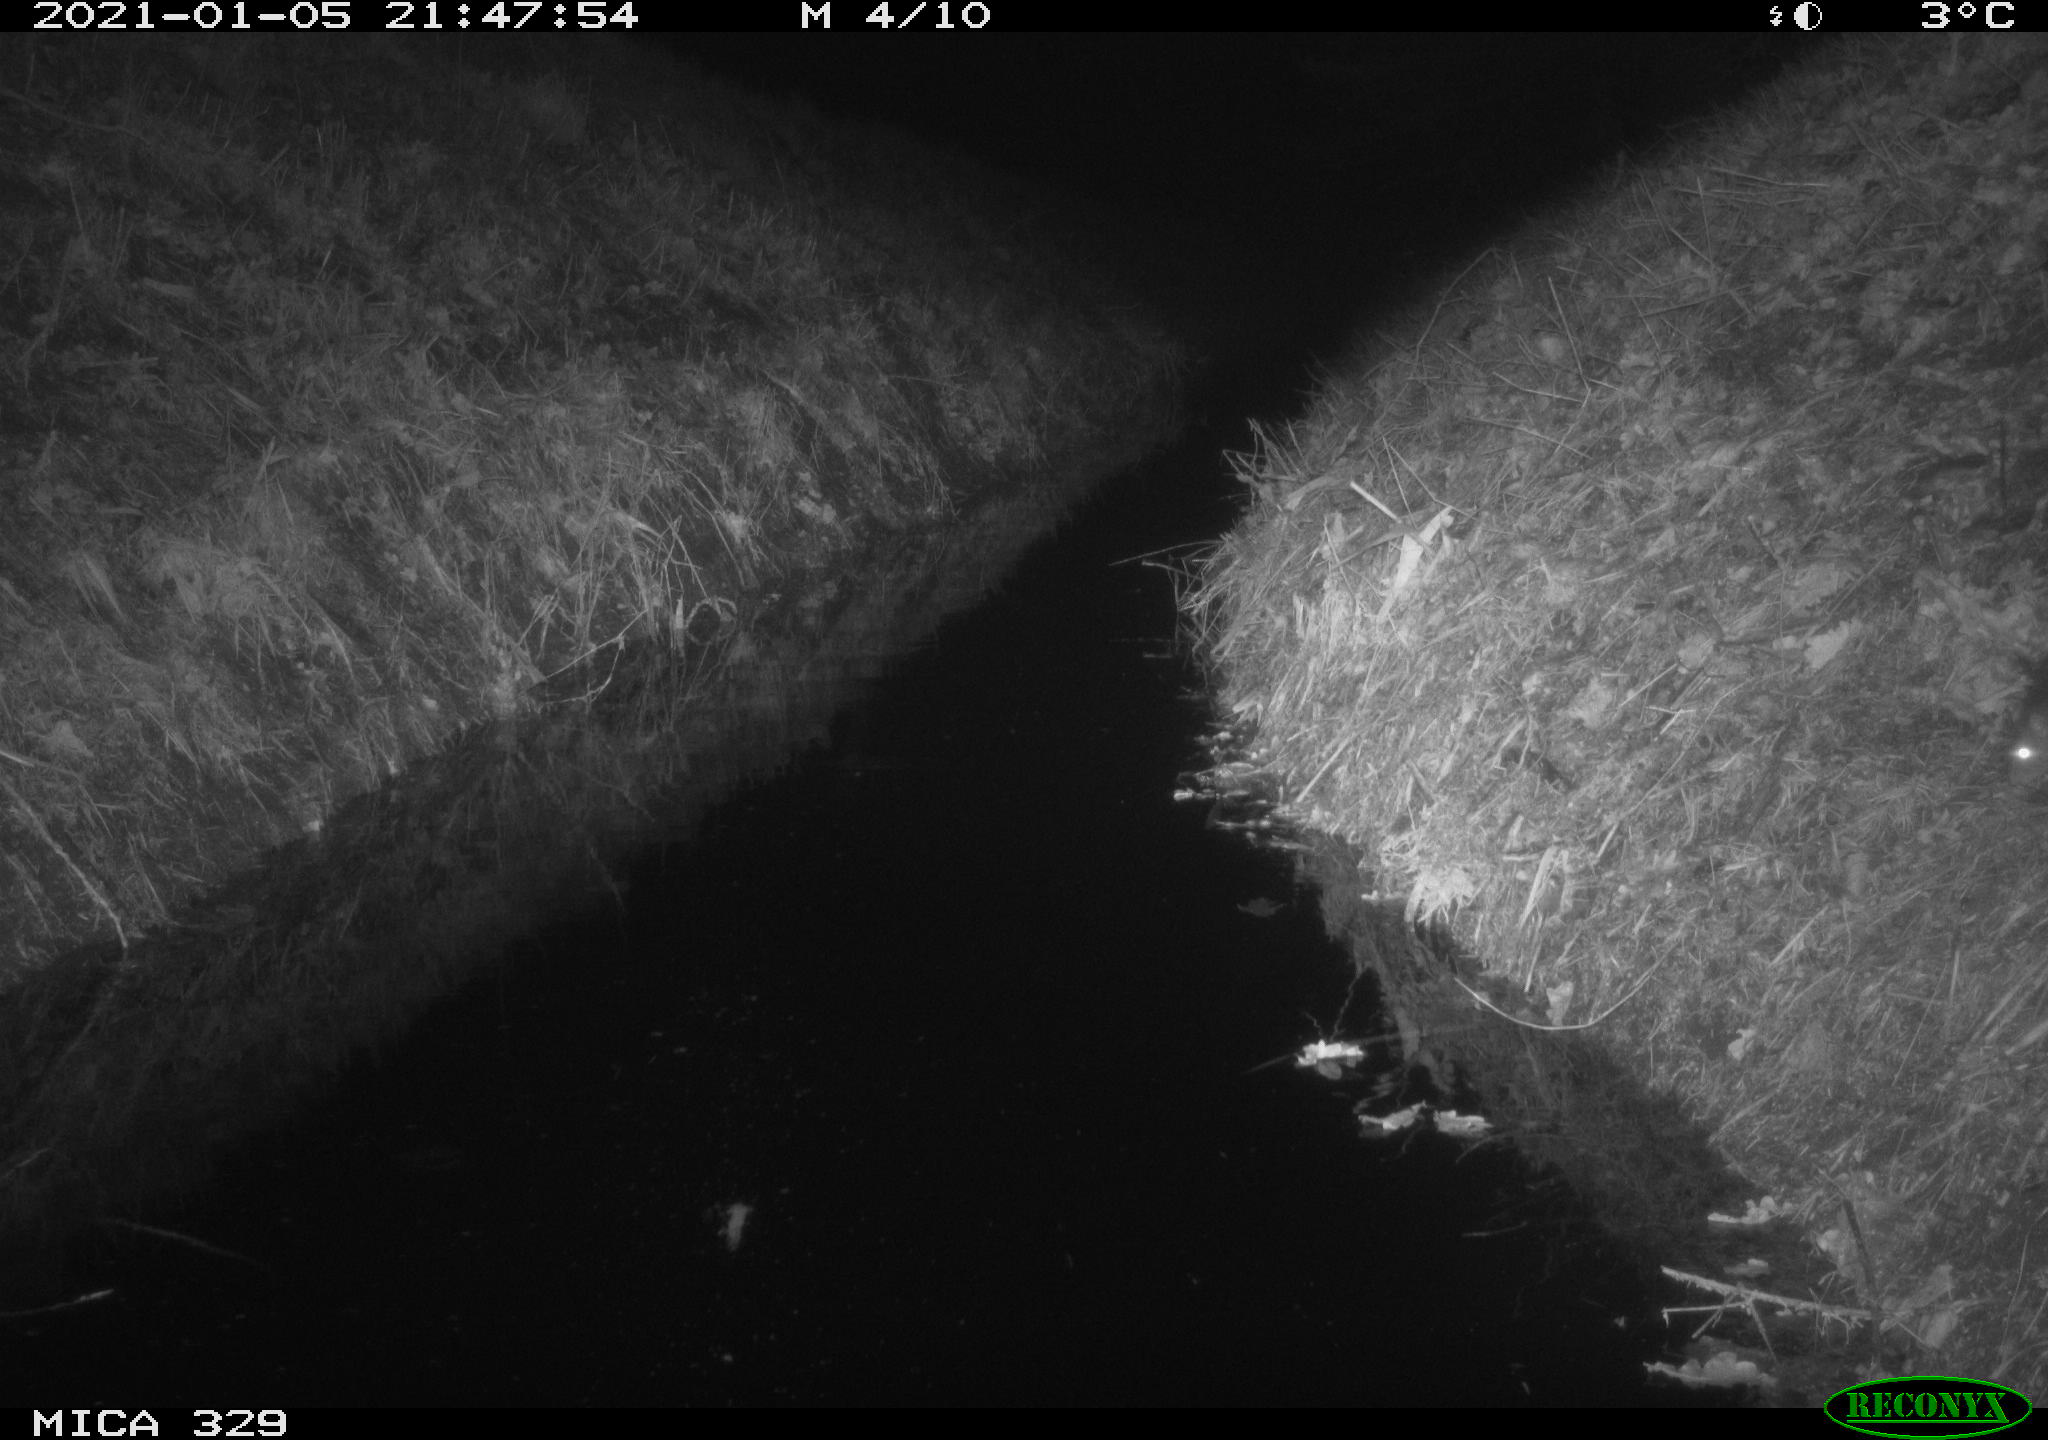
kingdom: Animalia
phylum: Chordata
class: Mammalia
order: Rodentia
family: Muridae
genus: Rattus
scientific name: Rattus norvegicus
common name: Brown rat
